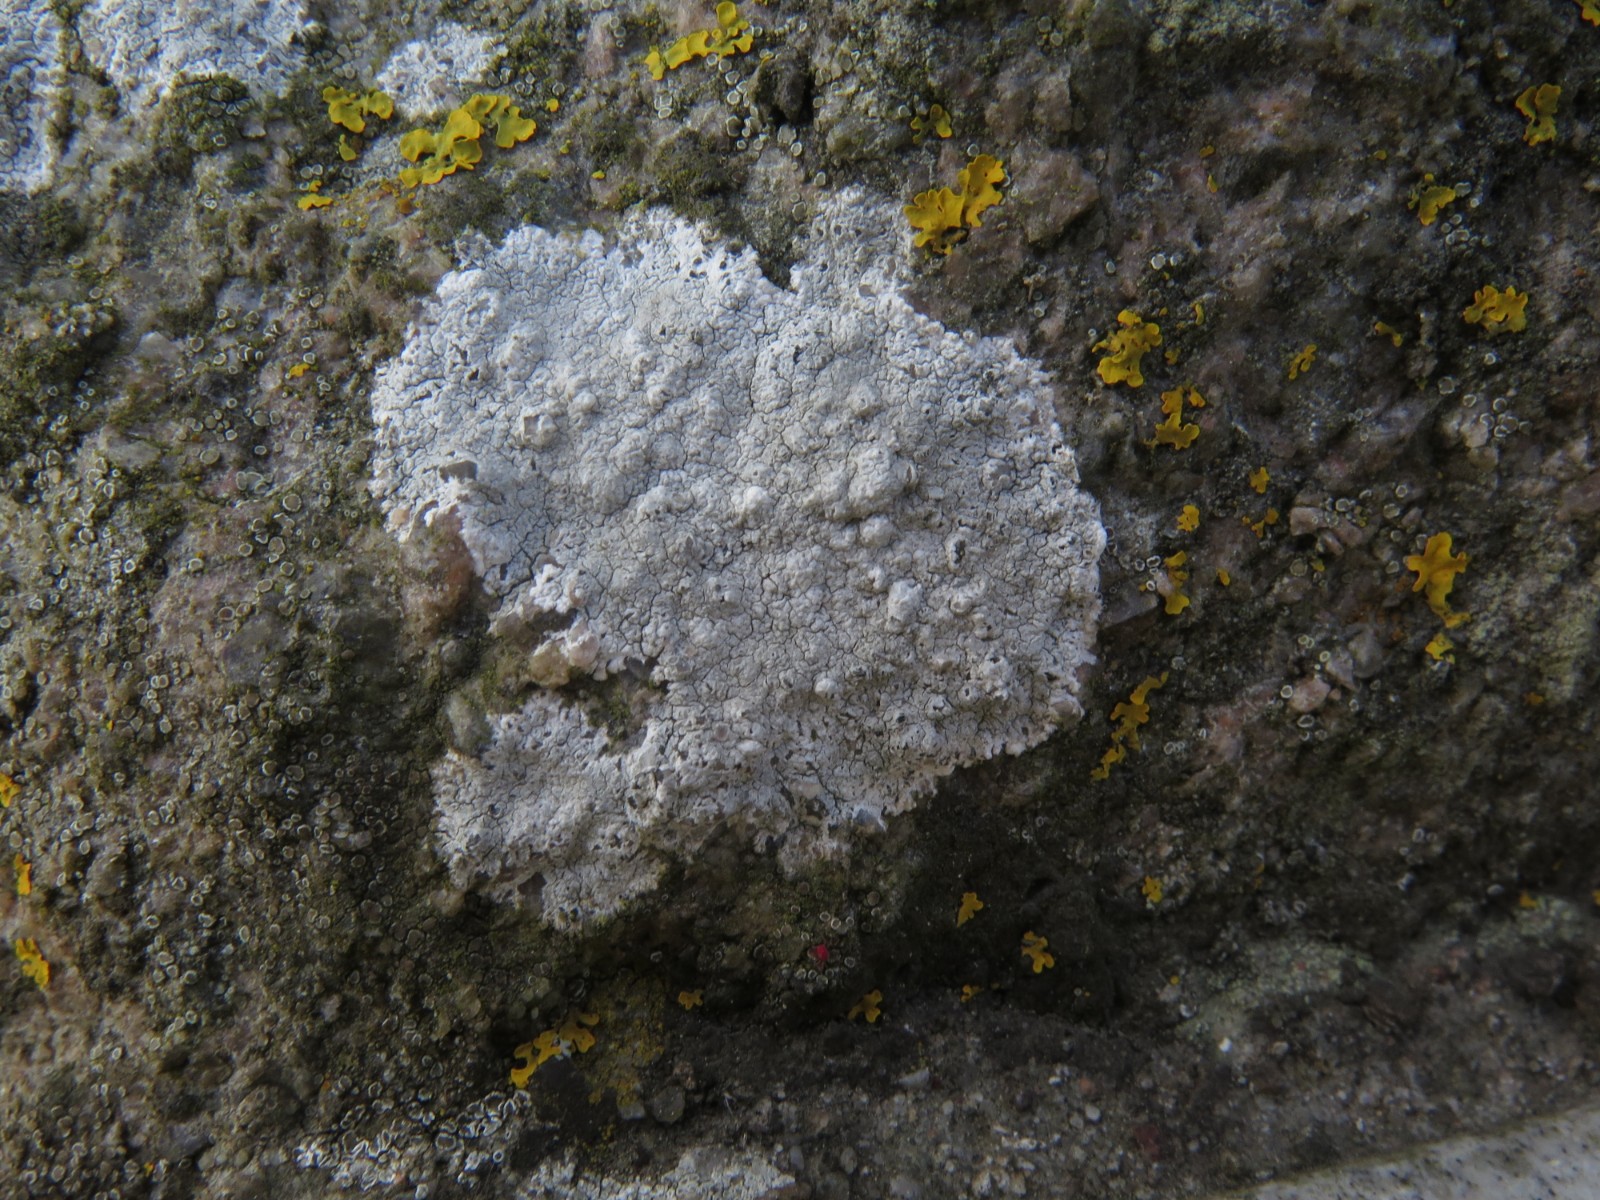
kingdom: Fungi
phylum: Ascomycota
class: Lecanoromycetes
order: Lecanorales
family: Lecanoraceae
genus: Glaucomaria
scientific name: Glaucomaria rupicola
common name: stengærde-kantskivelav
